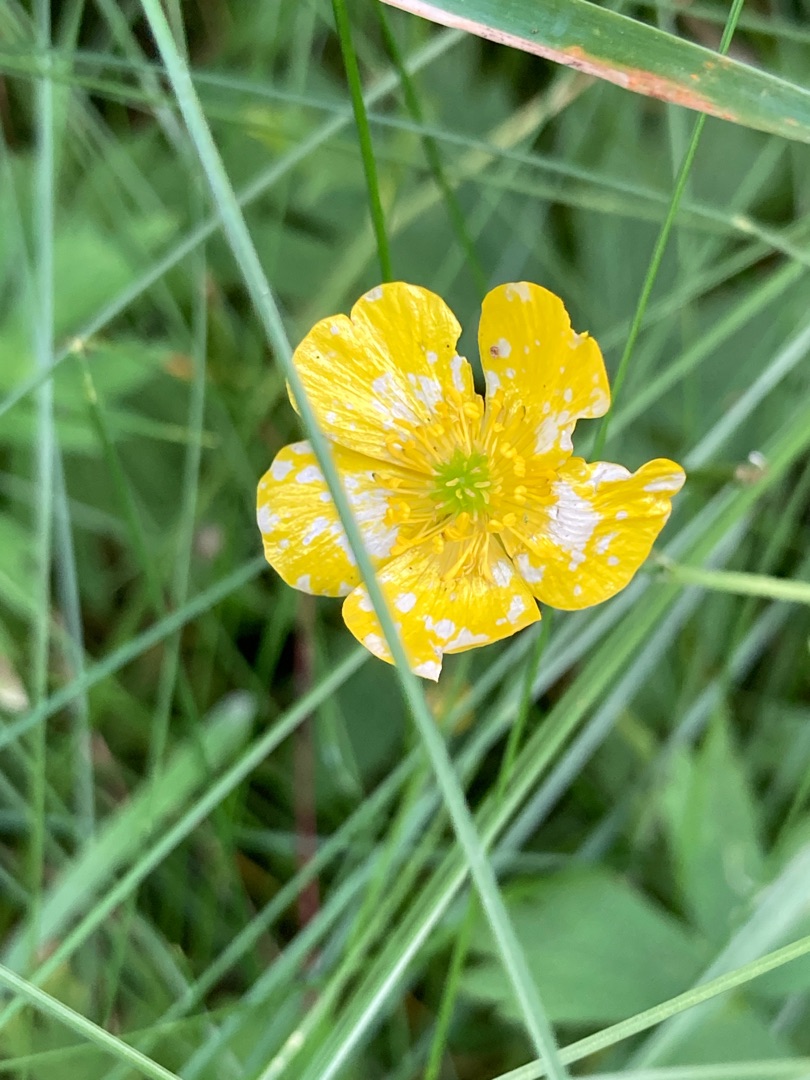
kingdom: Plantae
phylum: Tracheophyta
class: Magnoliopsida
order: Ranunculales
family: Ranunculaceae
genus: Ranunculus
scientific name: Ranunculus acris
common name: Bidende ranunkel
